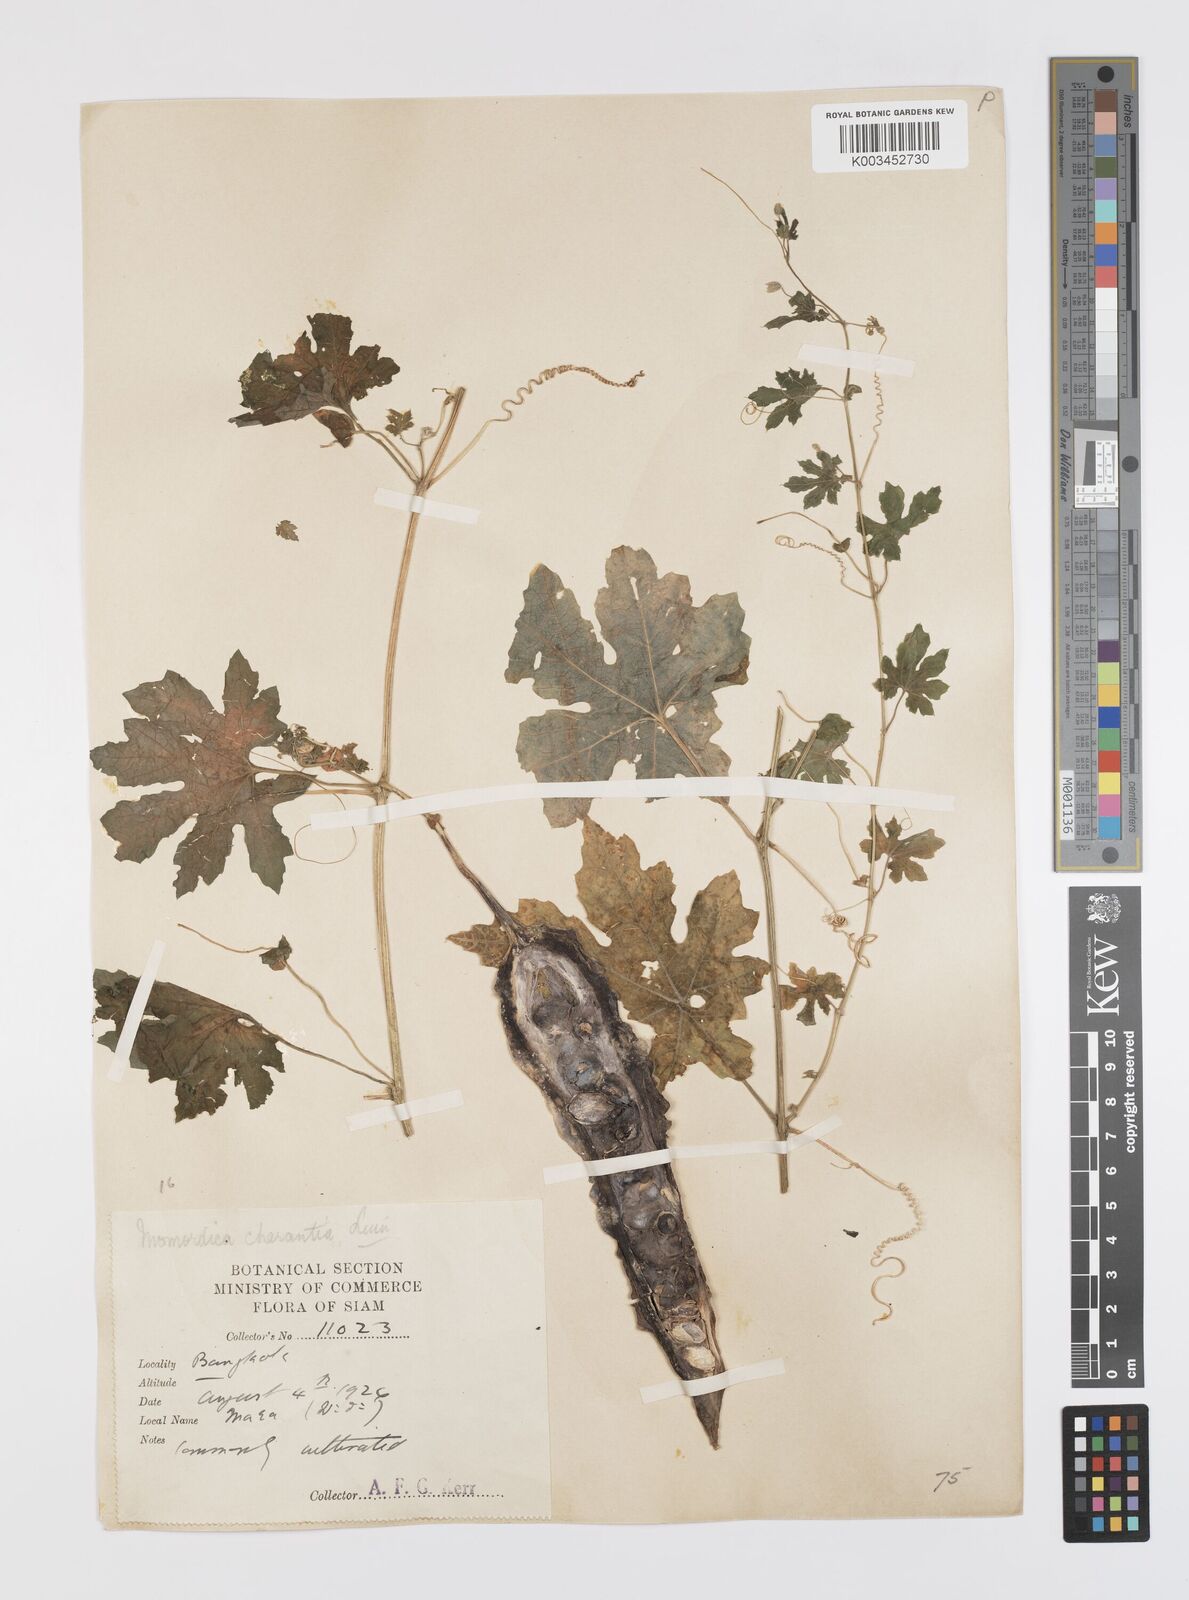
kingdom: Plantae
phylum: Tracheophyta
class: Magnoliopsida
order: Cucurbitales
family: Cucurbitaceae
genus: Momordica
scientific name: Momordica charantia
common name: Balsampear
